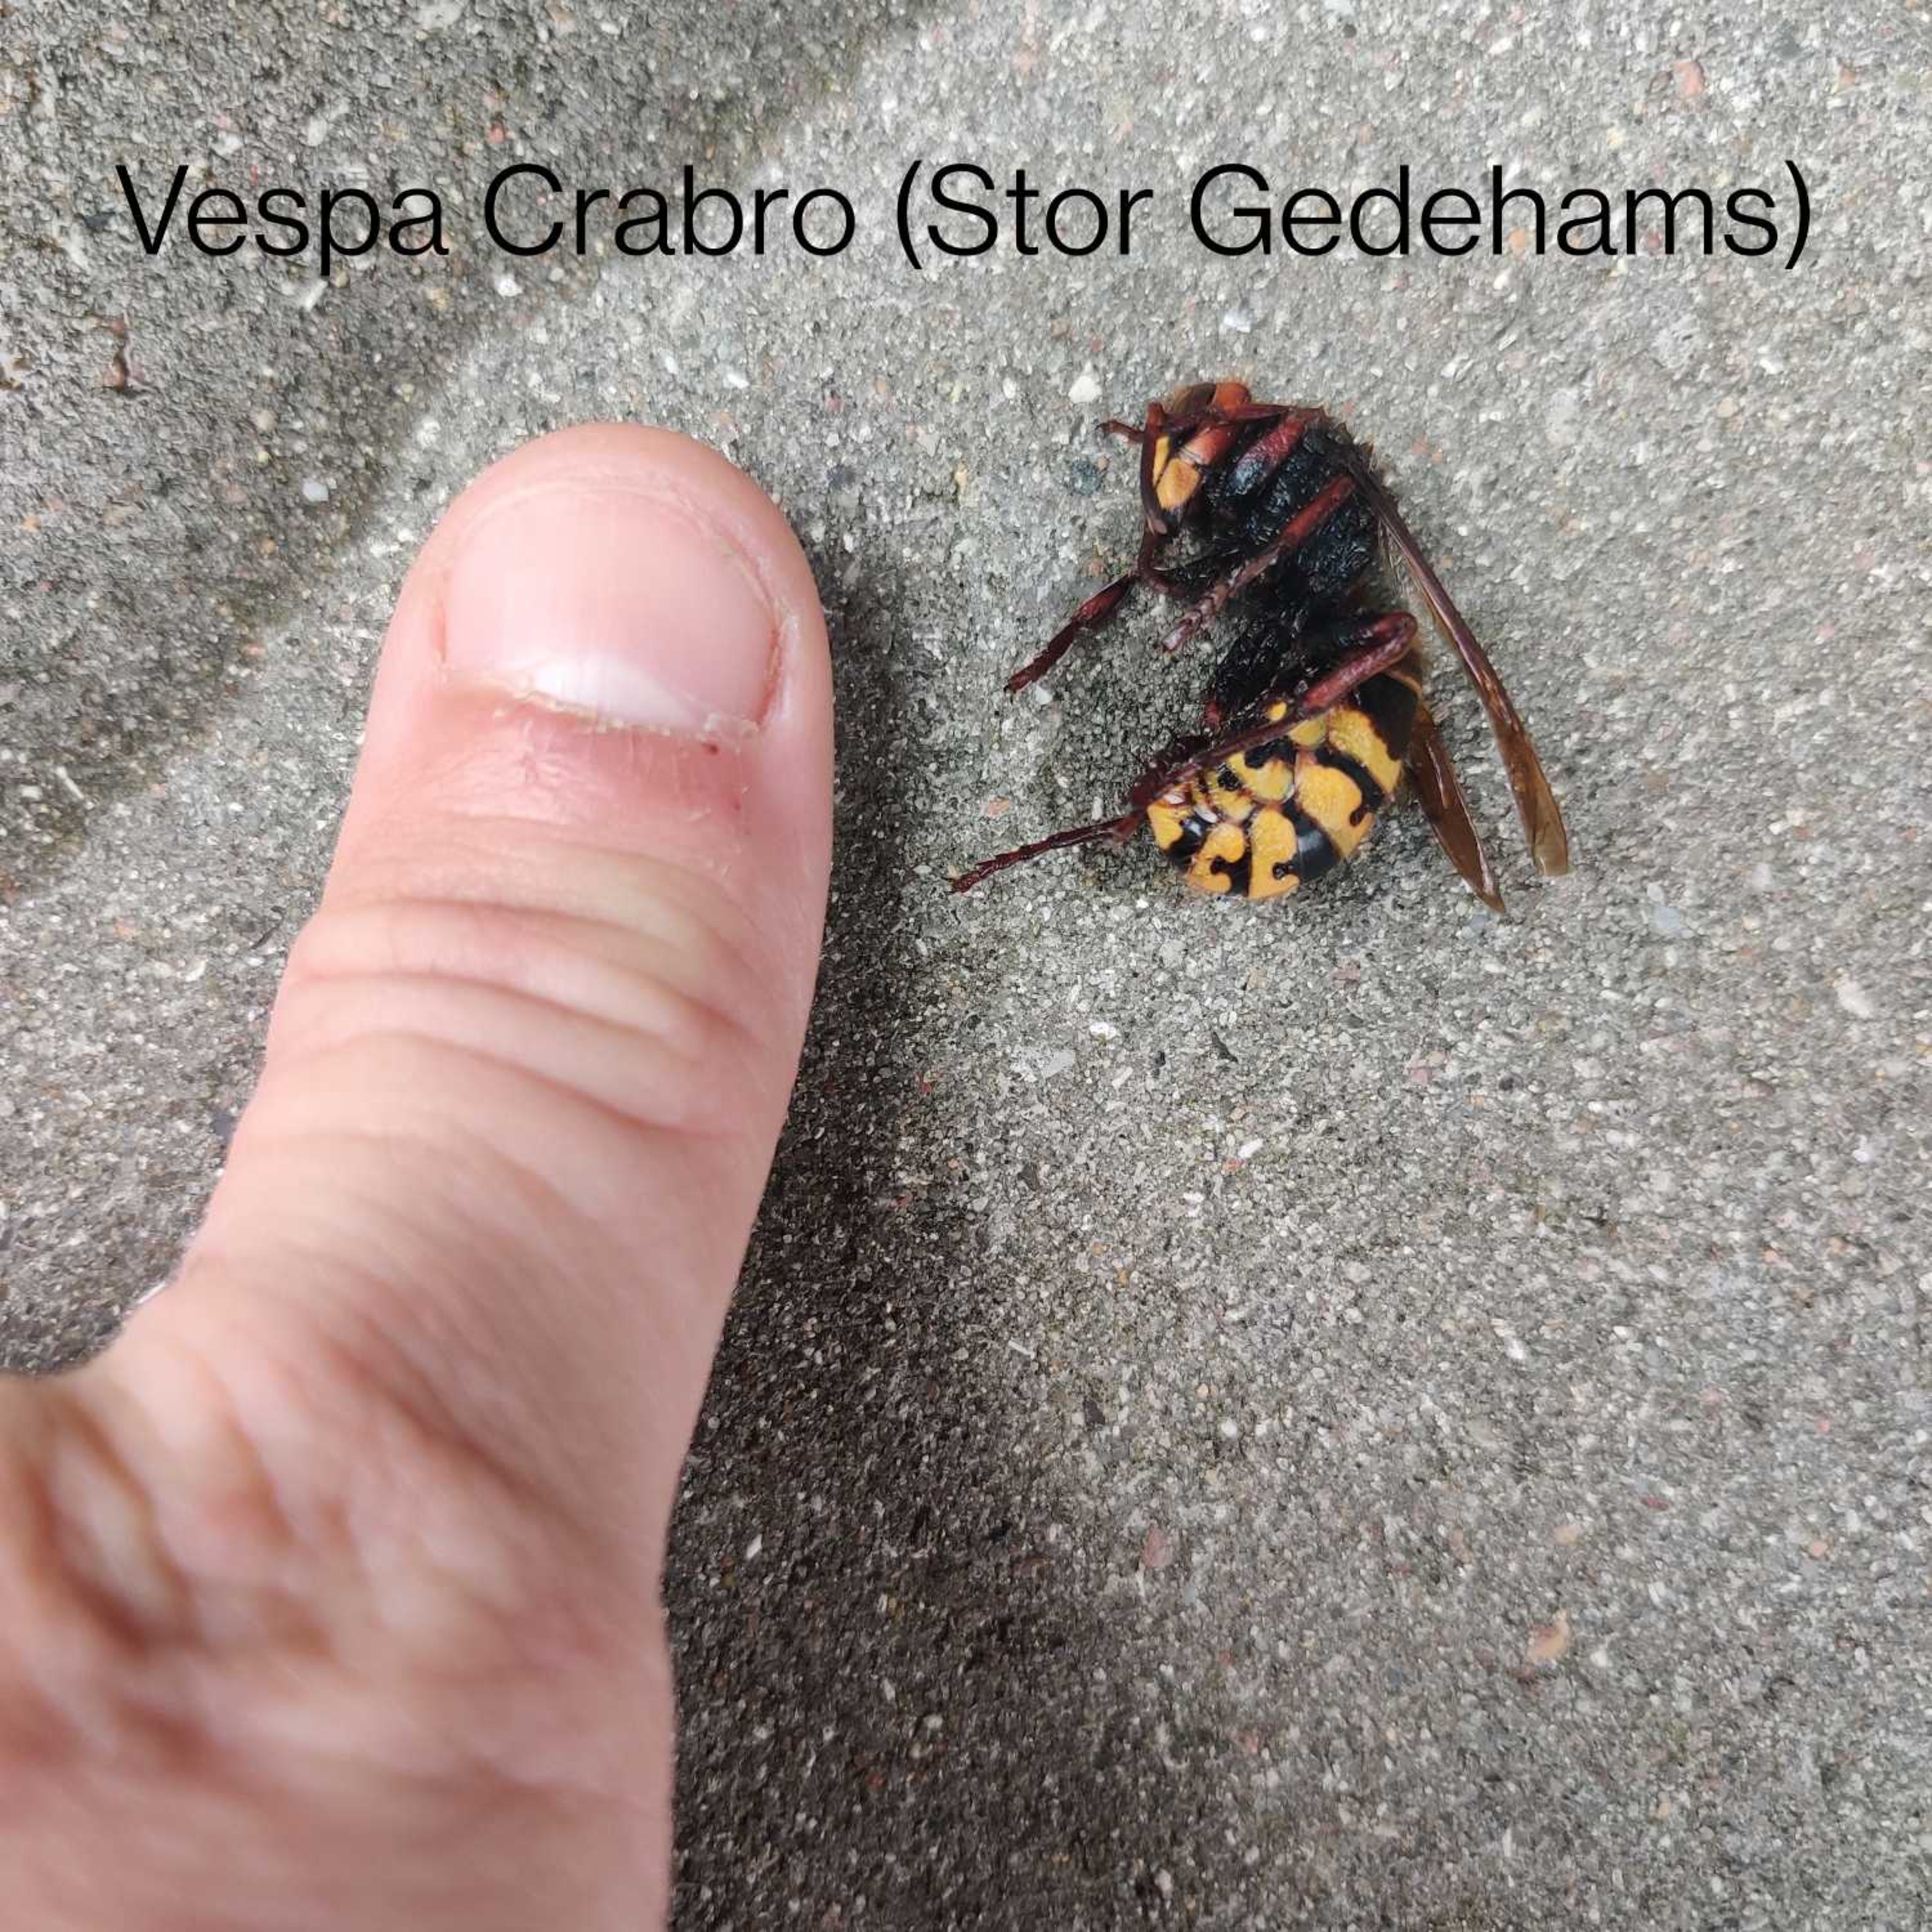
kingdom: Animalia
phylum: Arthropoda
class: Insecta
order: Hymenoptera
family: Vespidae
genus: Vespa
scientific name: Vespa crabro
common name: Stor gedehams
